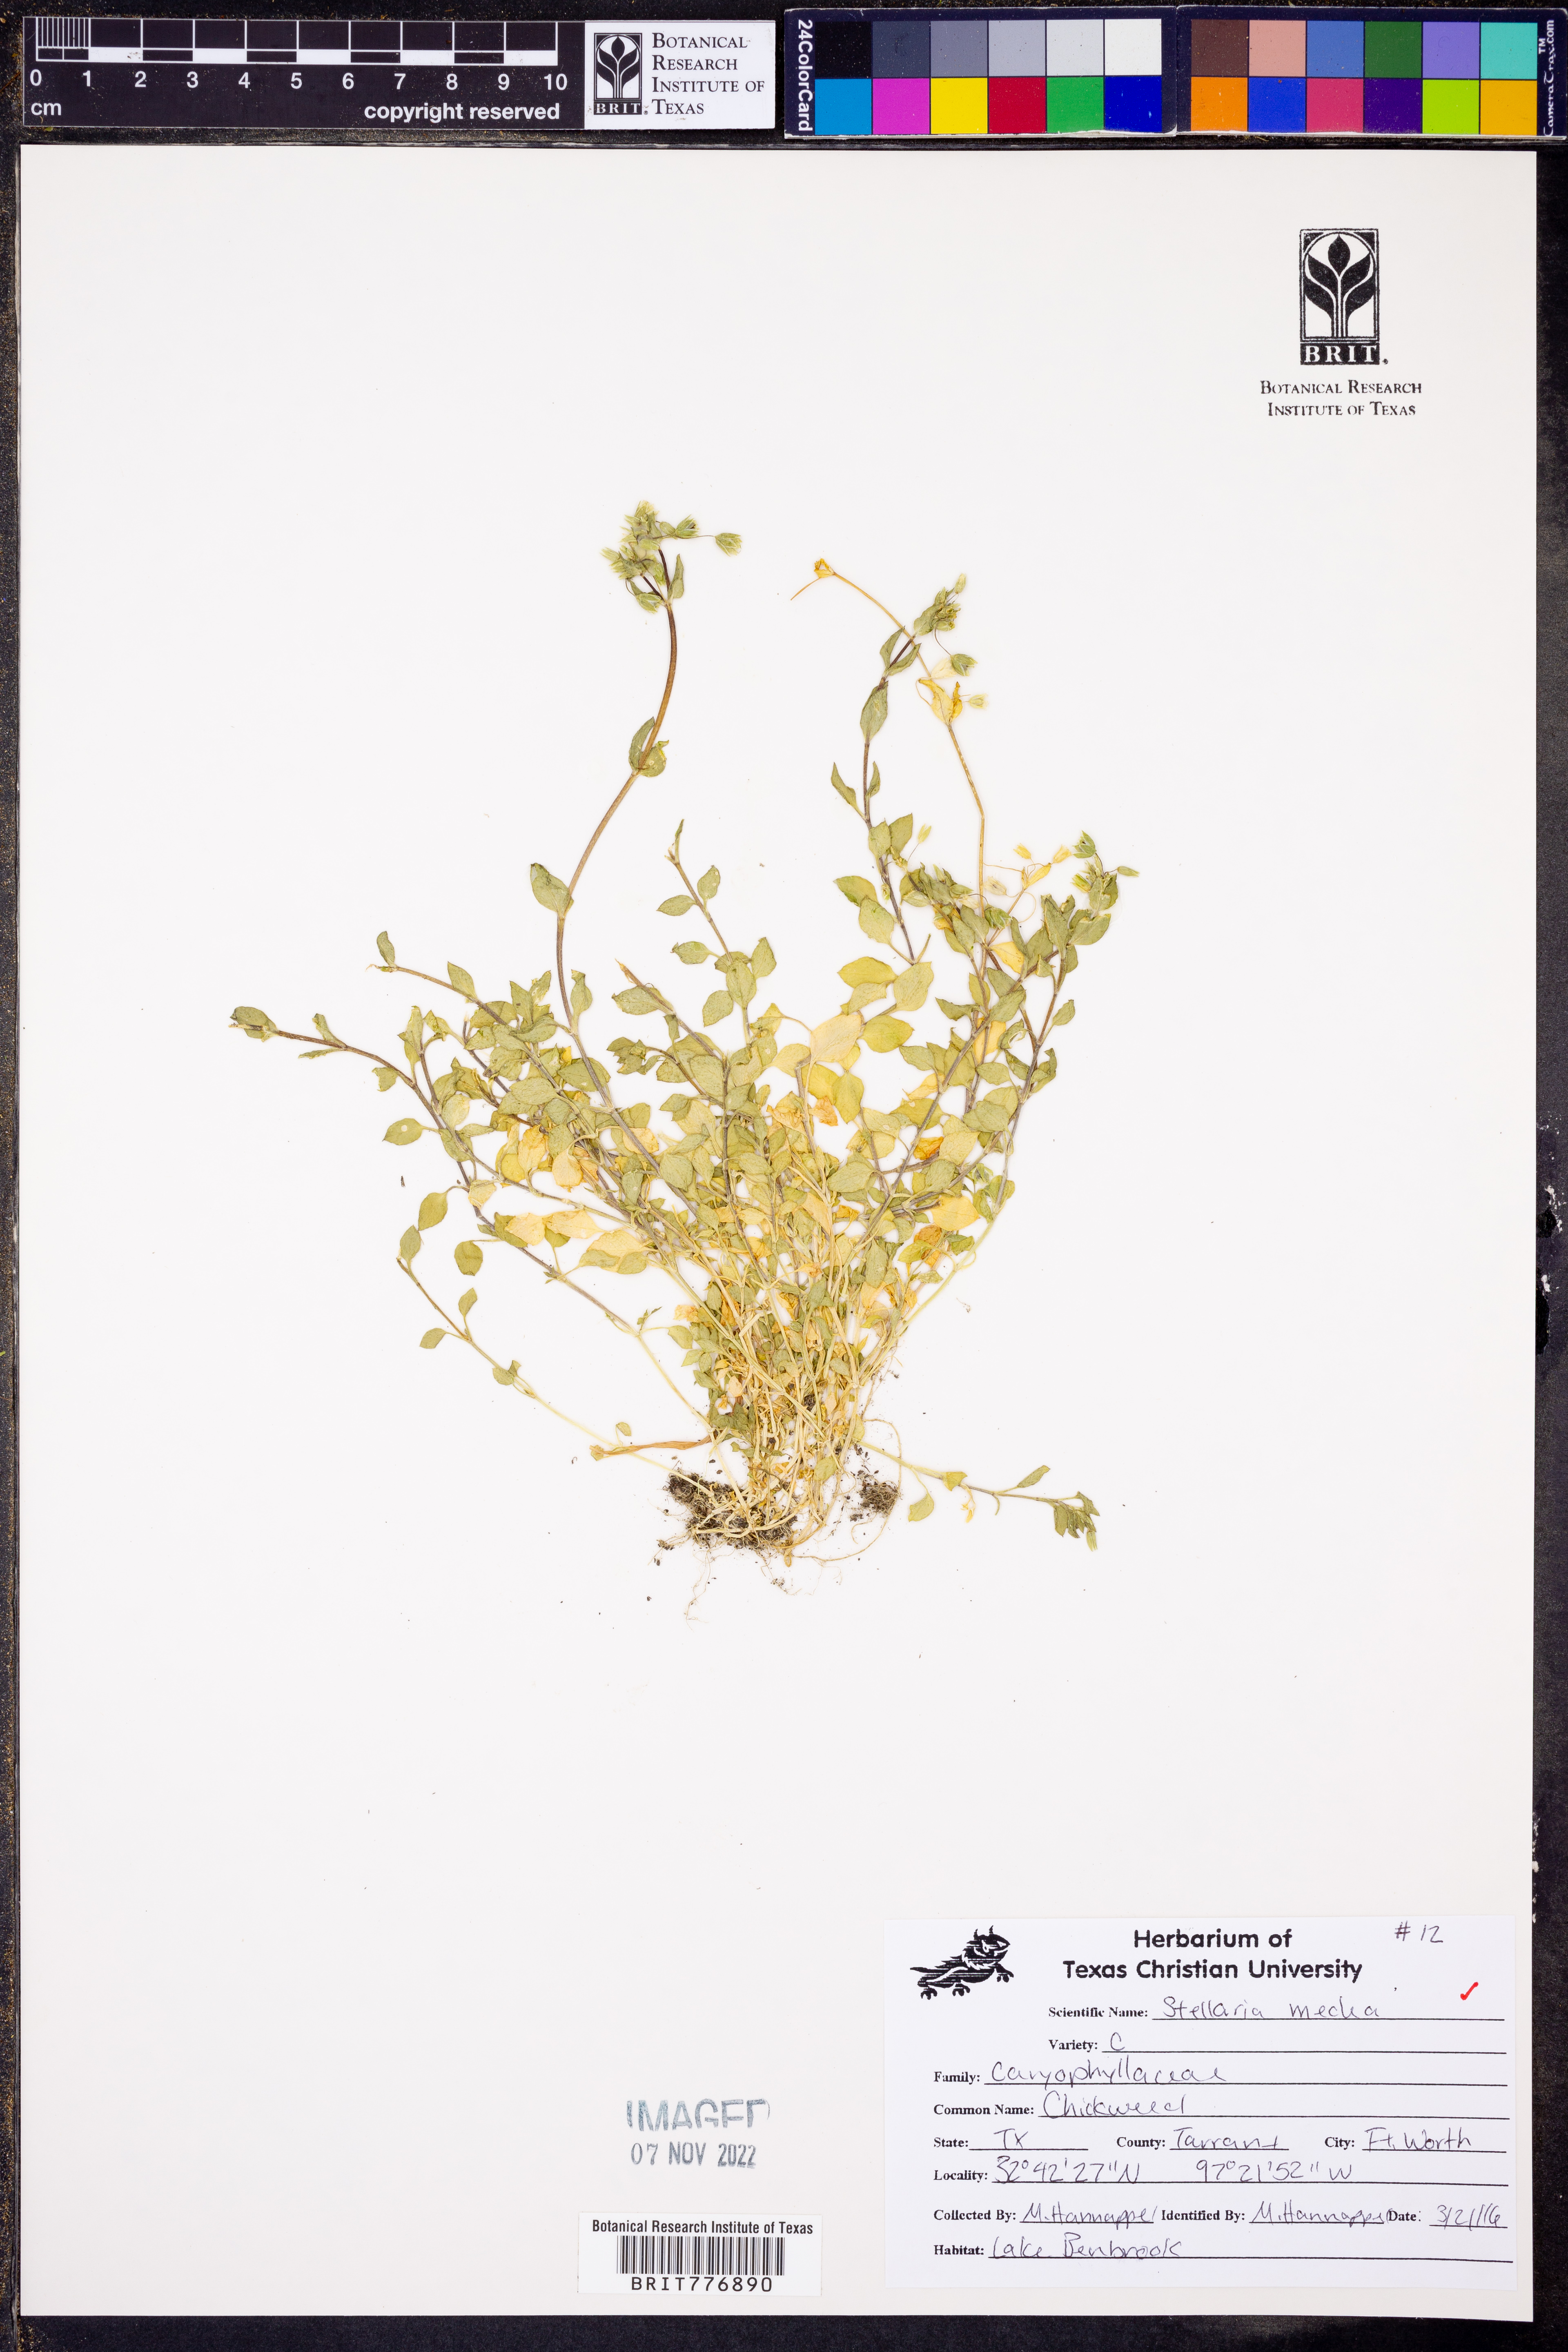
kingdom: Plantae
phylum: Tracheophyta
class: Magnoliopsida
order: Caryophyllales
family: Caryophyllaceae
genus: Stellaria
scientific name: Stellaria media
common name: Common chickweed
